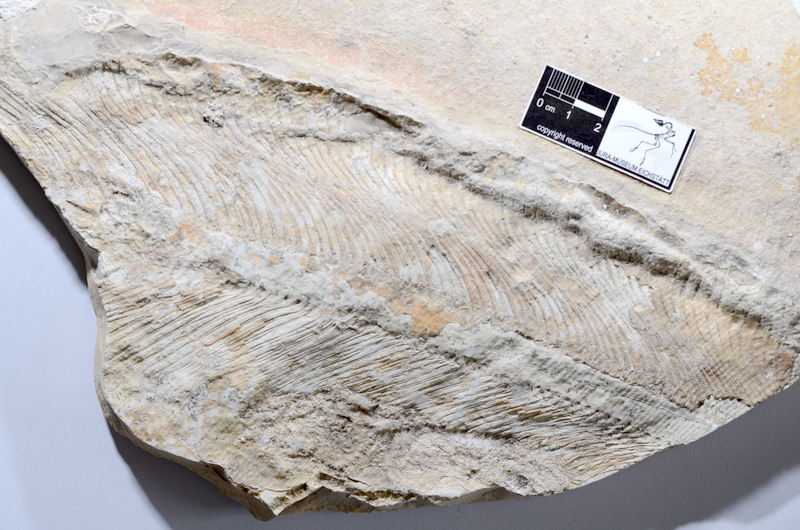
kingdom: Animalia
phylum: Chordata
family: Pachycormidae
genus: Hypsocormus
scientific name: Hypsocormus insignis
